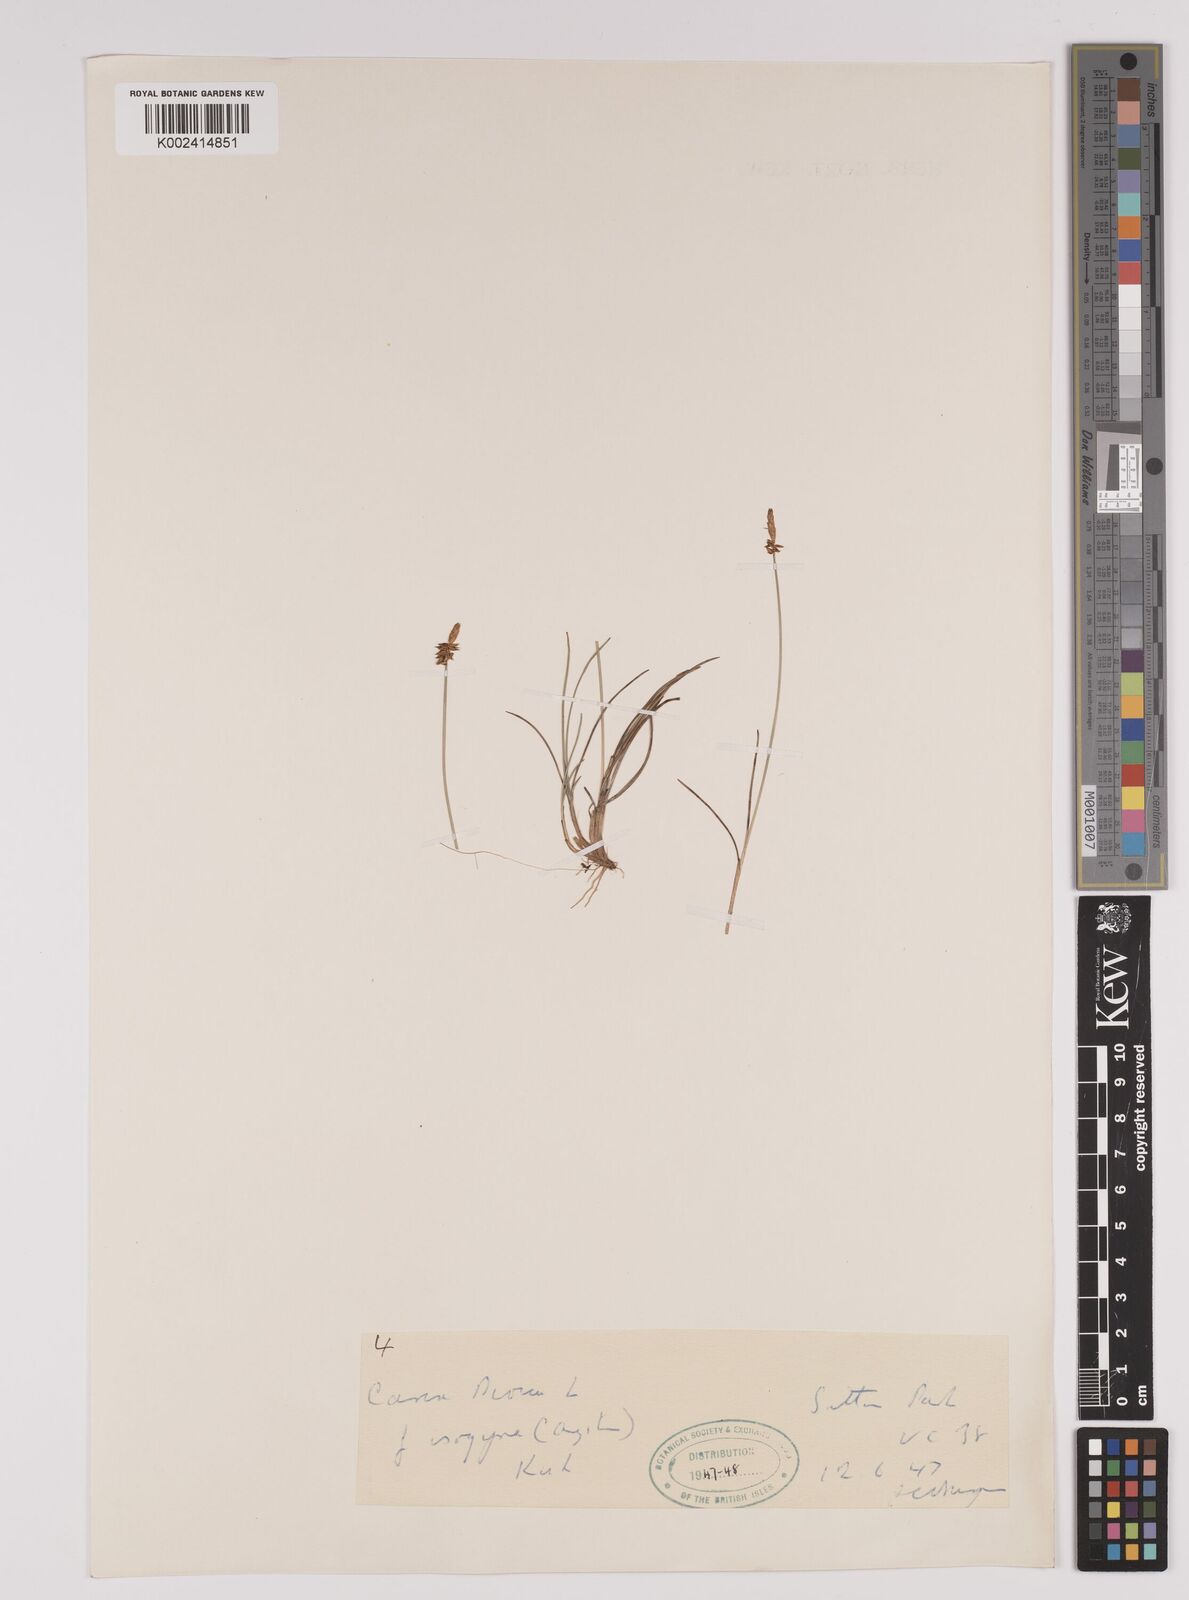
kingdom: Plantae
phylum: Tracheophyta
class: Liliopsida
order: Poales
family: Cyperaceae
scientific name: Cyperaceae
